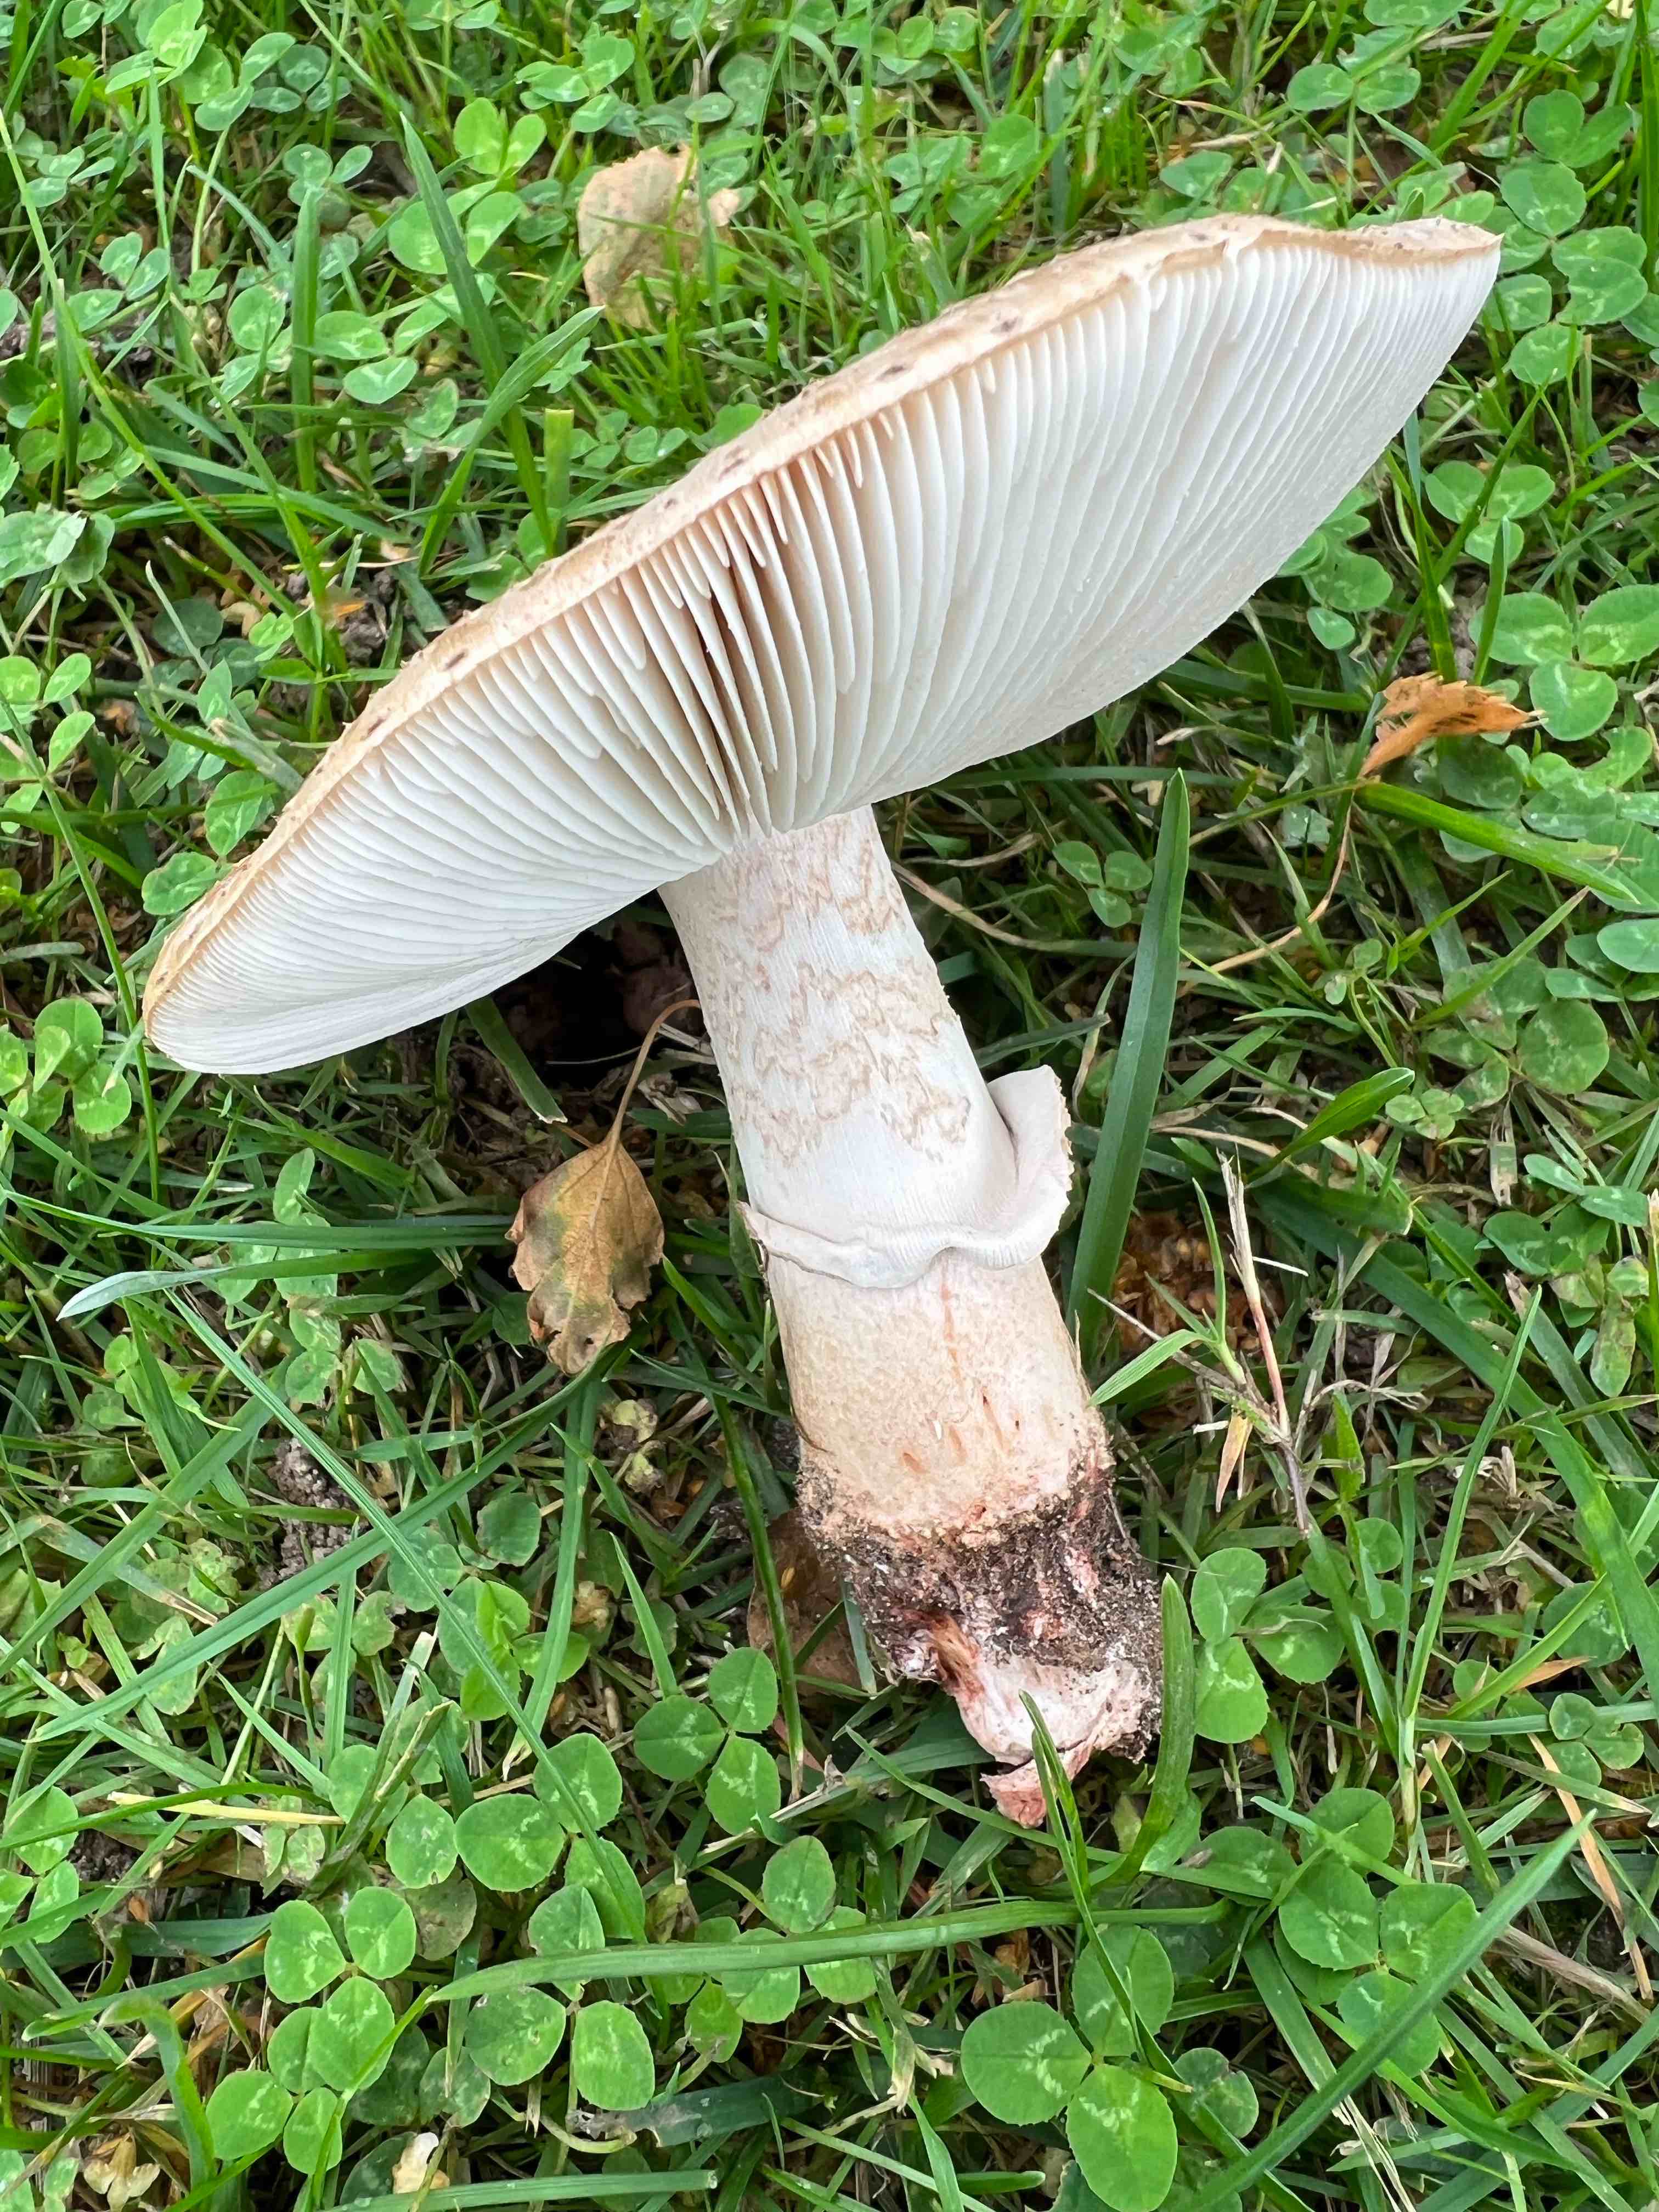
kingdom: Fungi
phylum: Basidiomycota
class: Agaricomycetes
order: Agaricales
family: Amanitaceae
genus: Amanita
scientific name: Amanita rubescens
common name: rødmende fluesvamp
